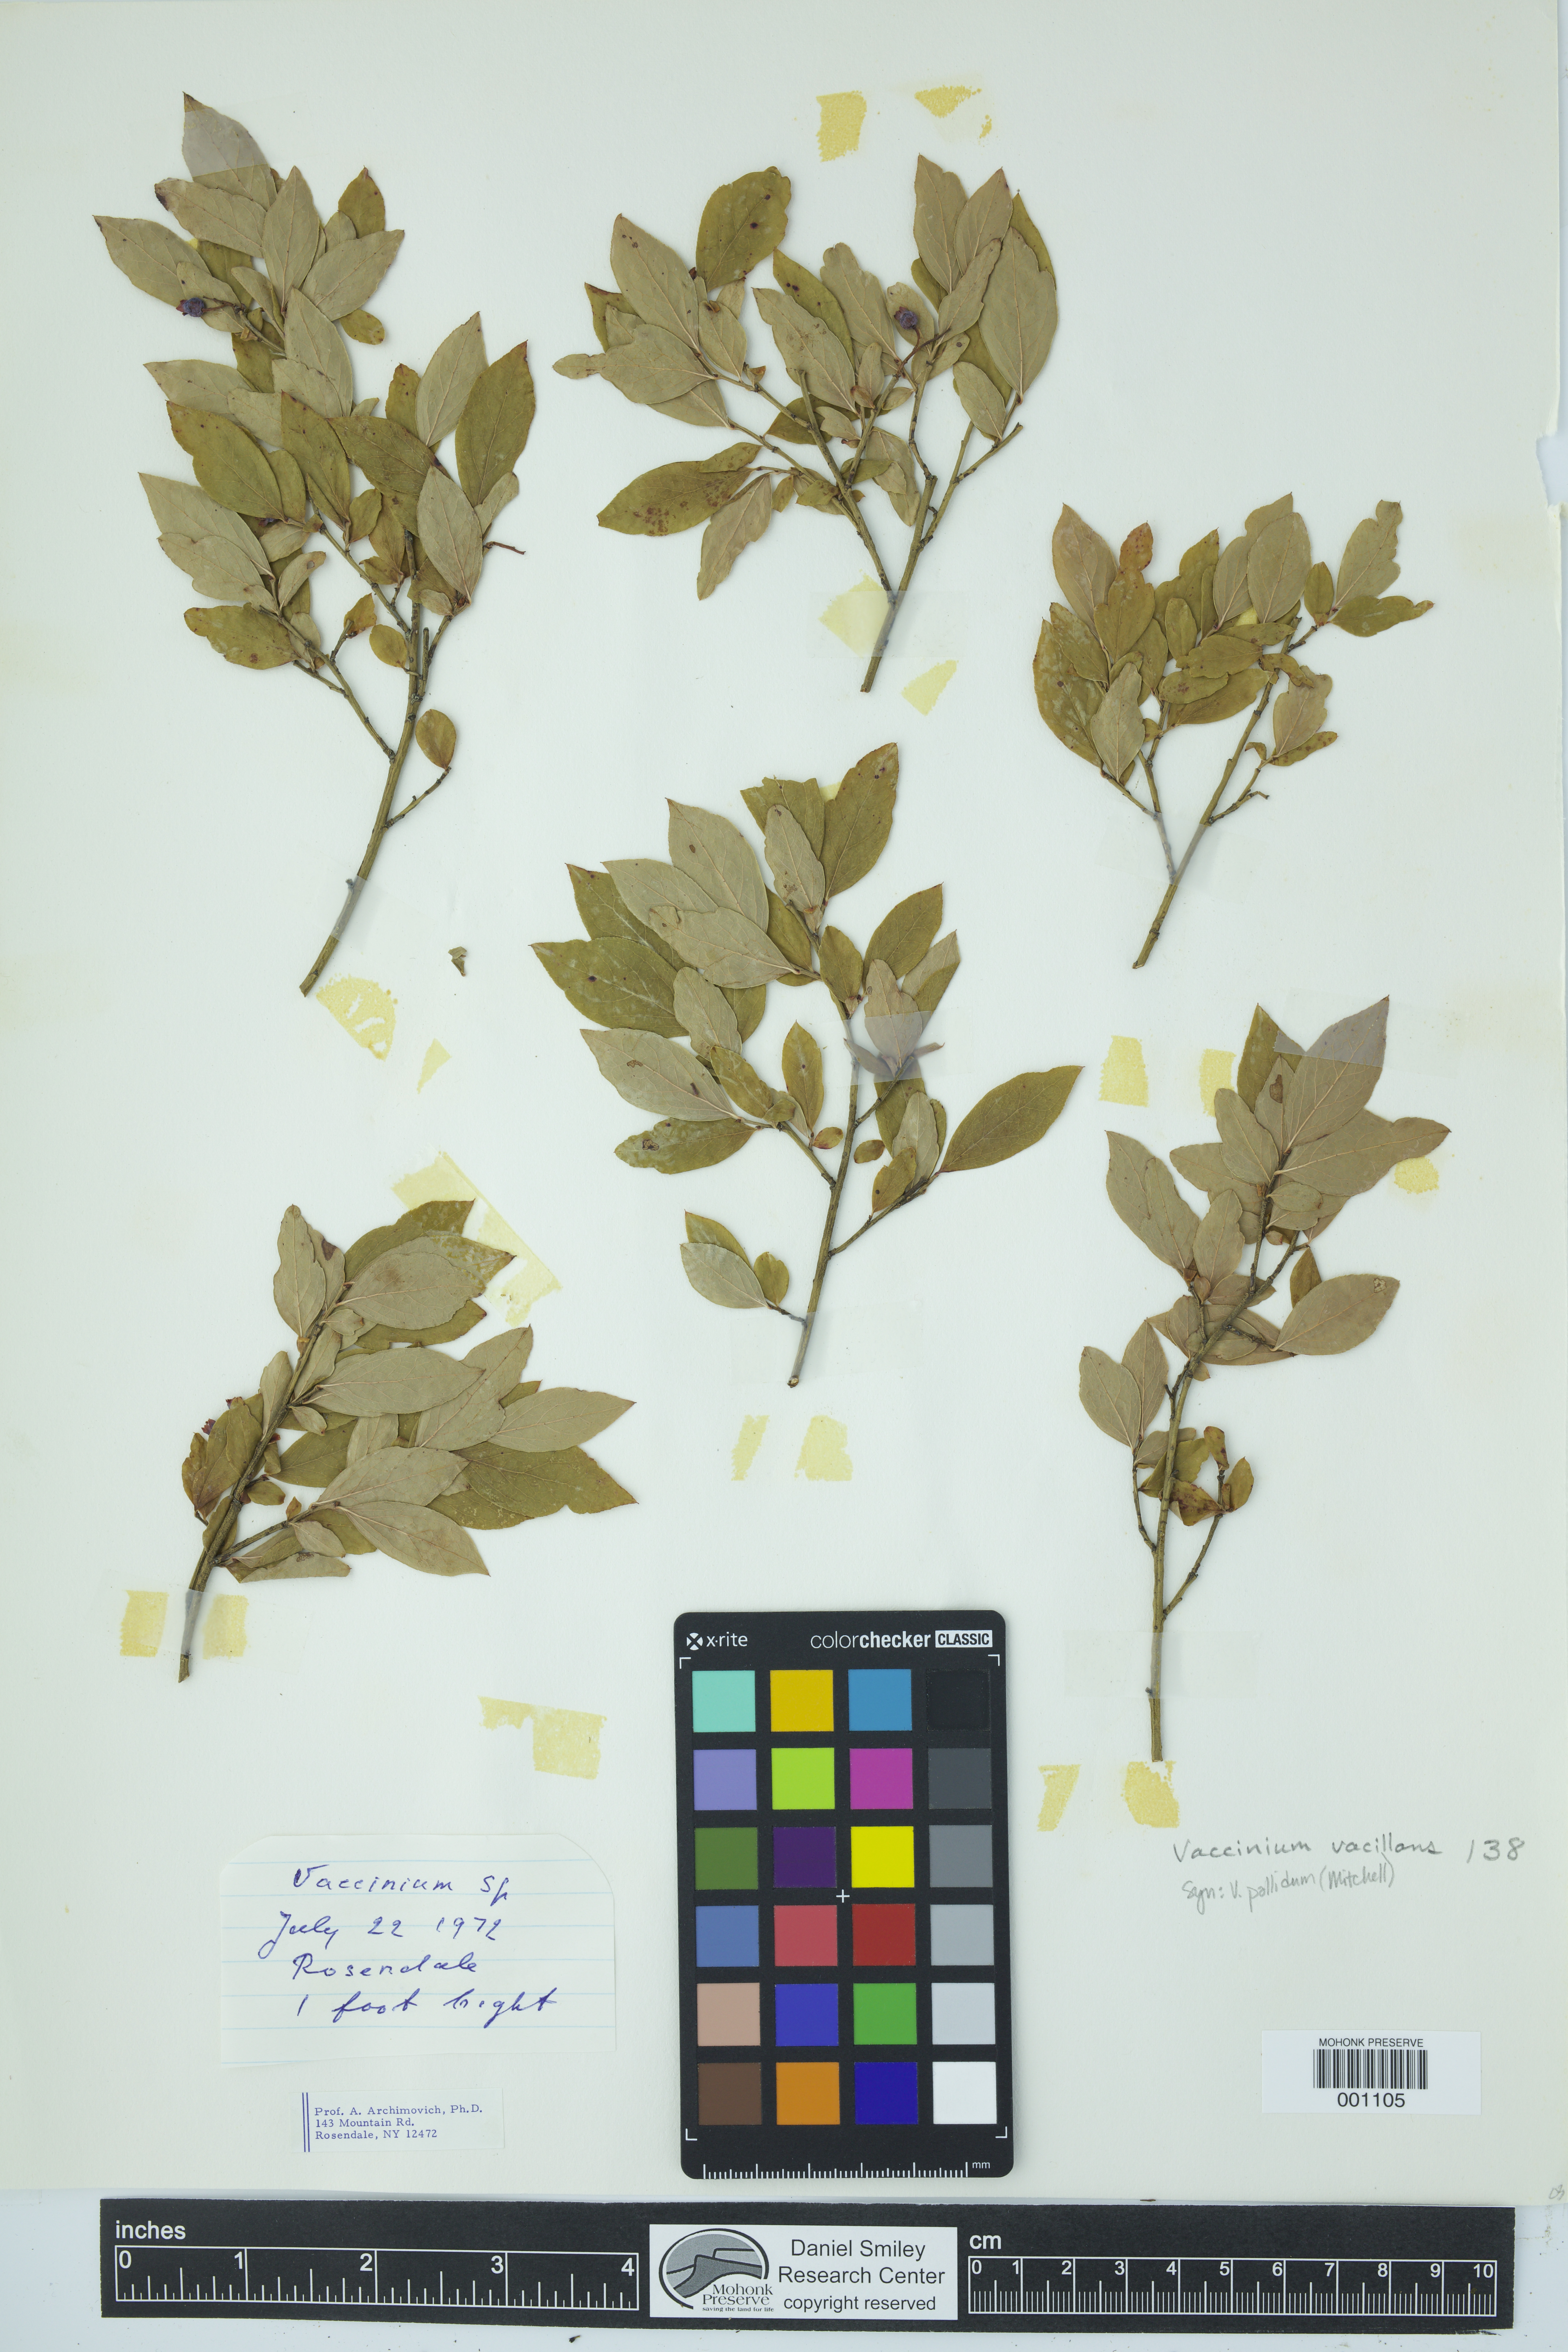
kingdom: Plantae
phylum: Tracheophyta
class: Magnoliopsida
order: Ericales
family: Ericaceae
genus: Vaccinium
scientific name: Vaccinium pallidum
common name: Blue ridge blueberry
